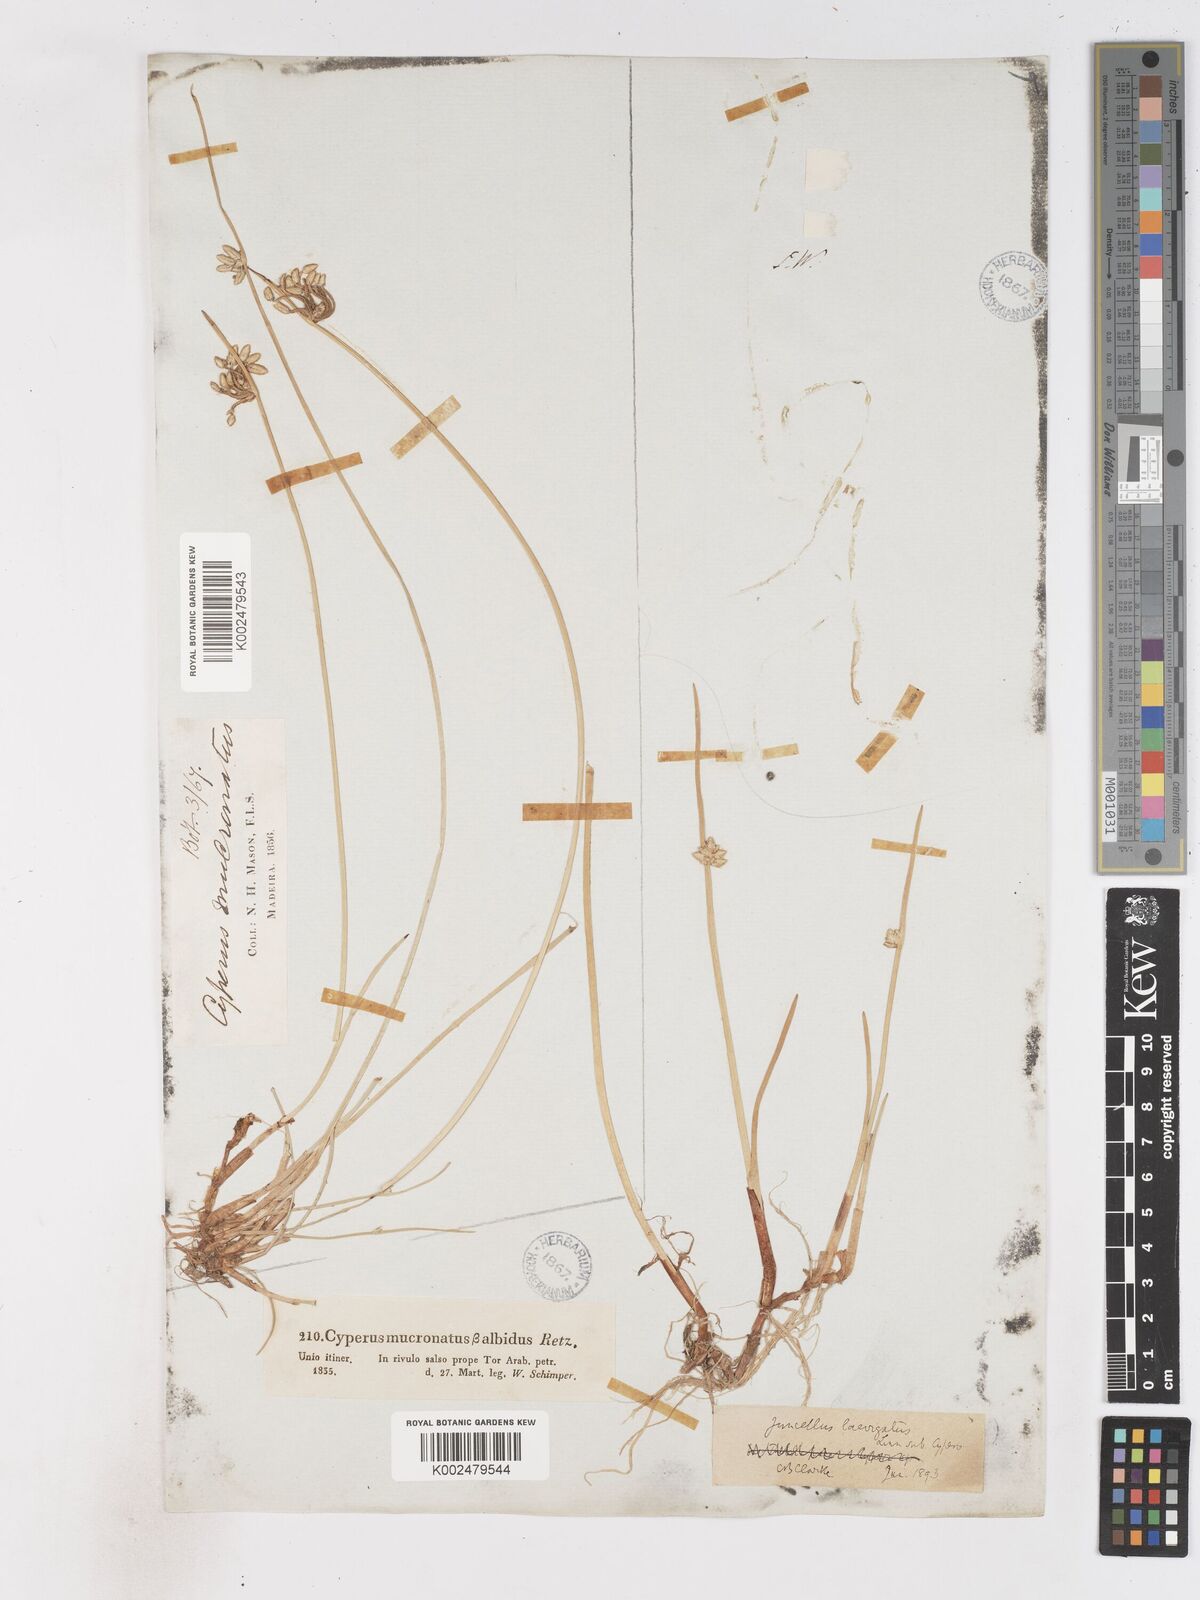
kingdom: Plantae
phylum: Tracheophyta
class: Liliopsida
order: Poales
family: Cyperaceae
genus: Cyperus
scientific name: Cyperus laevigatus
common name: Smooth flat sedge
